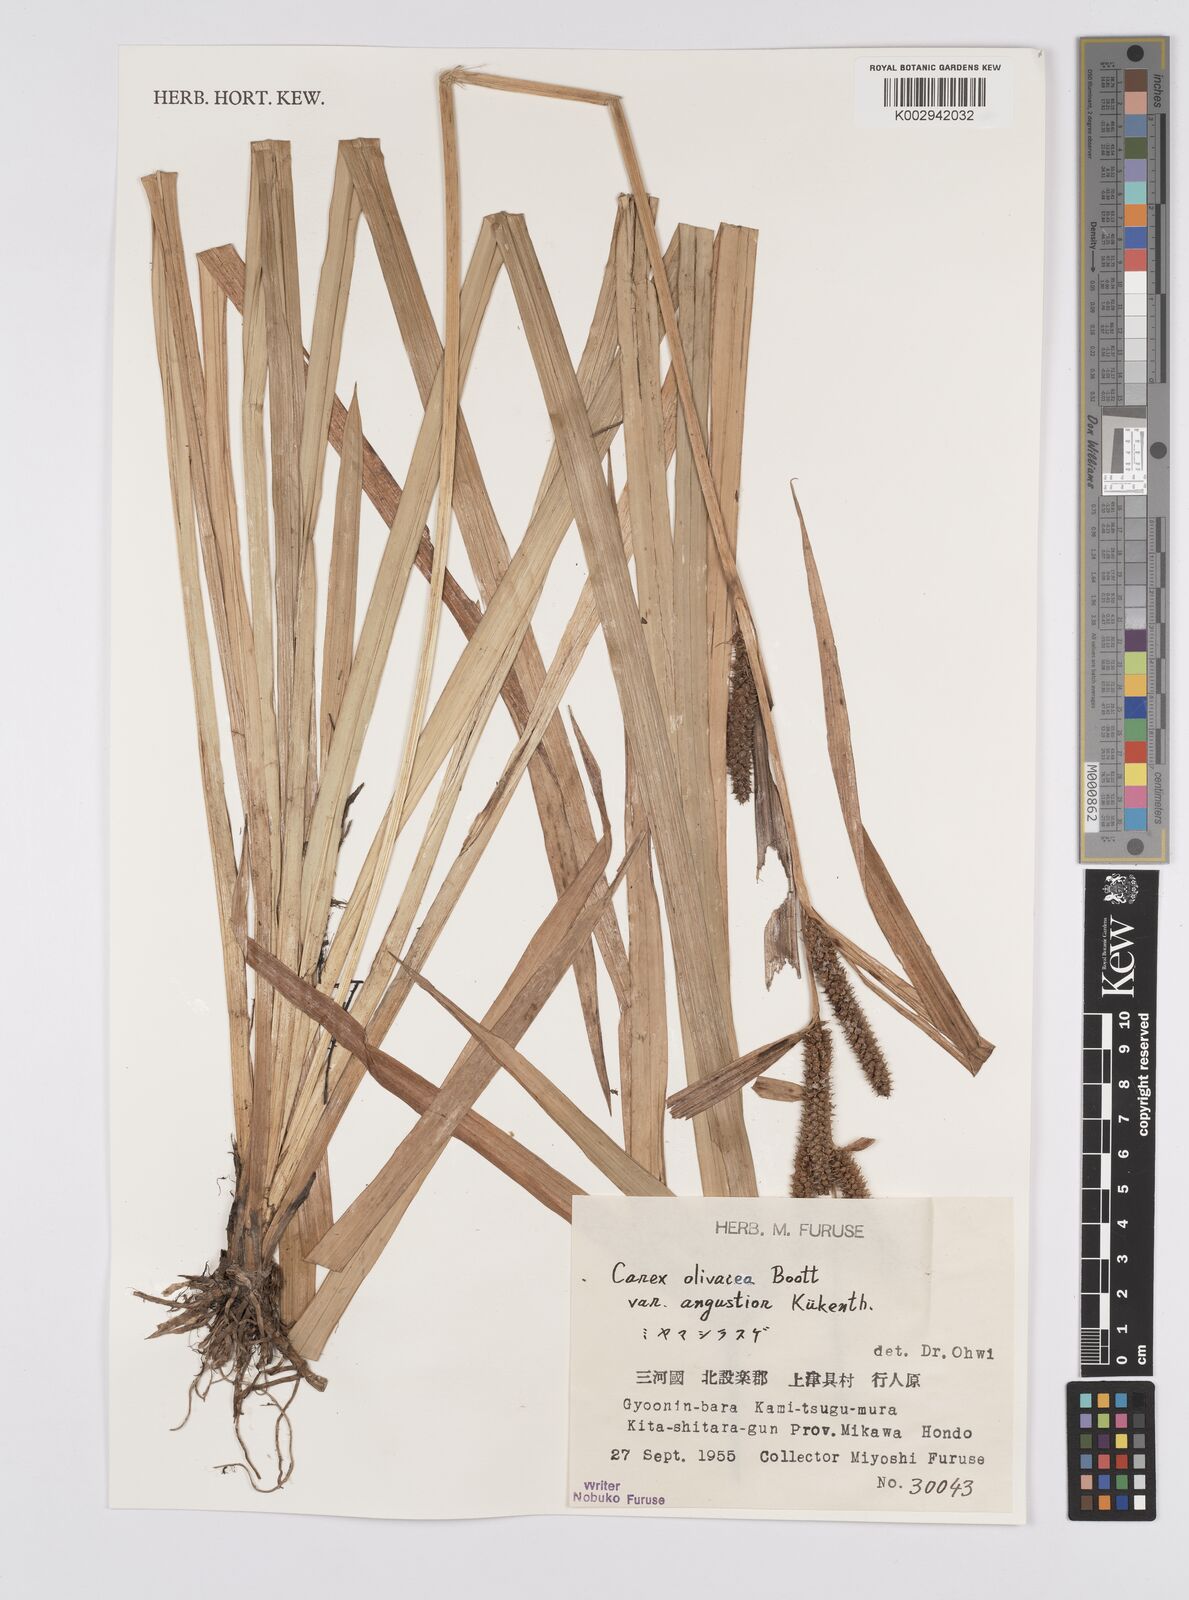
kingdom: Plantae
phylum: Tracheophyta
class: Liliopsida
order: Poales
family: Cyperaceae
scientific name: Cyperaceae
